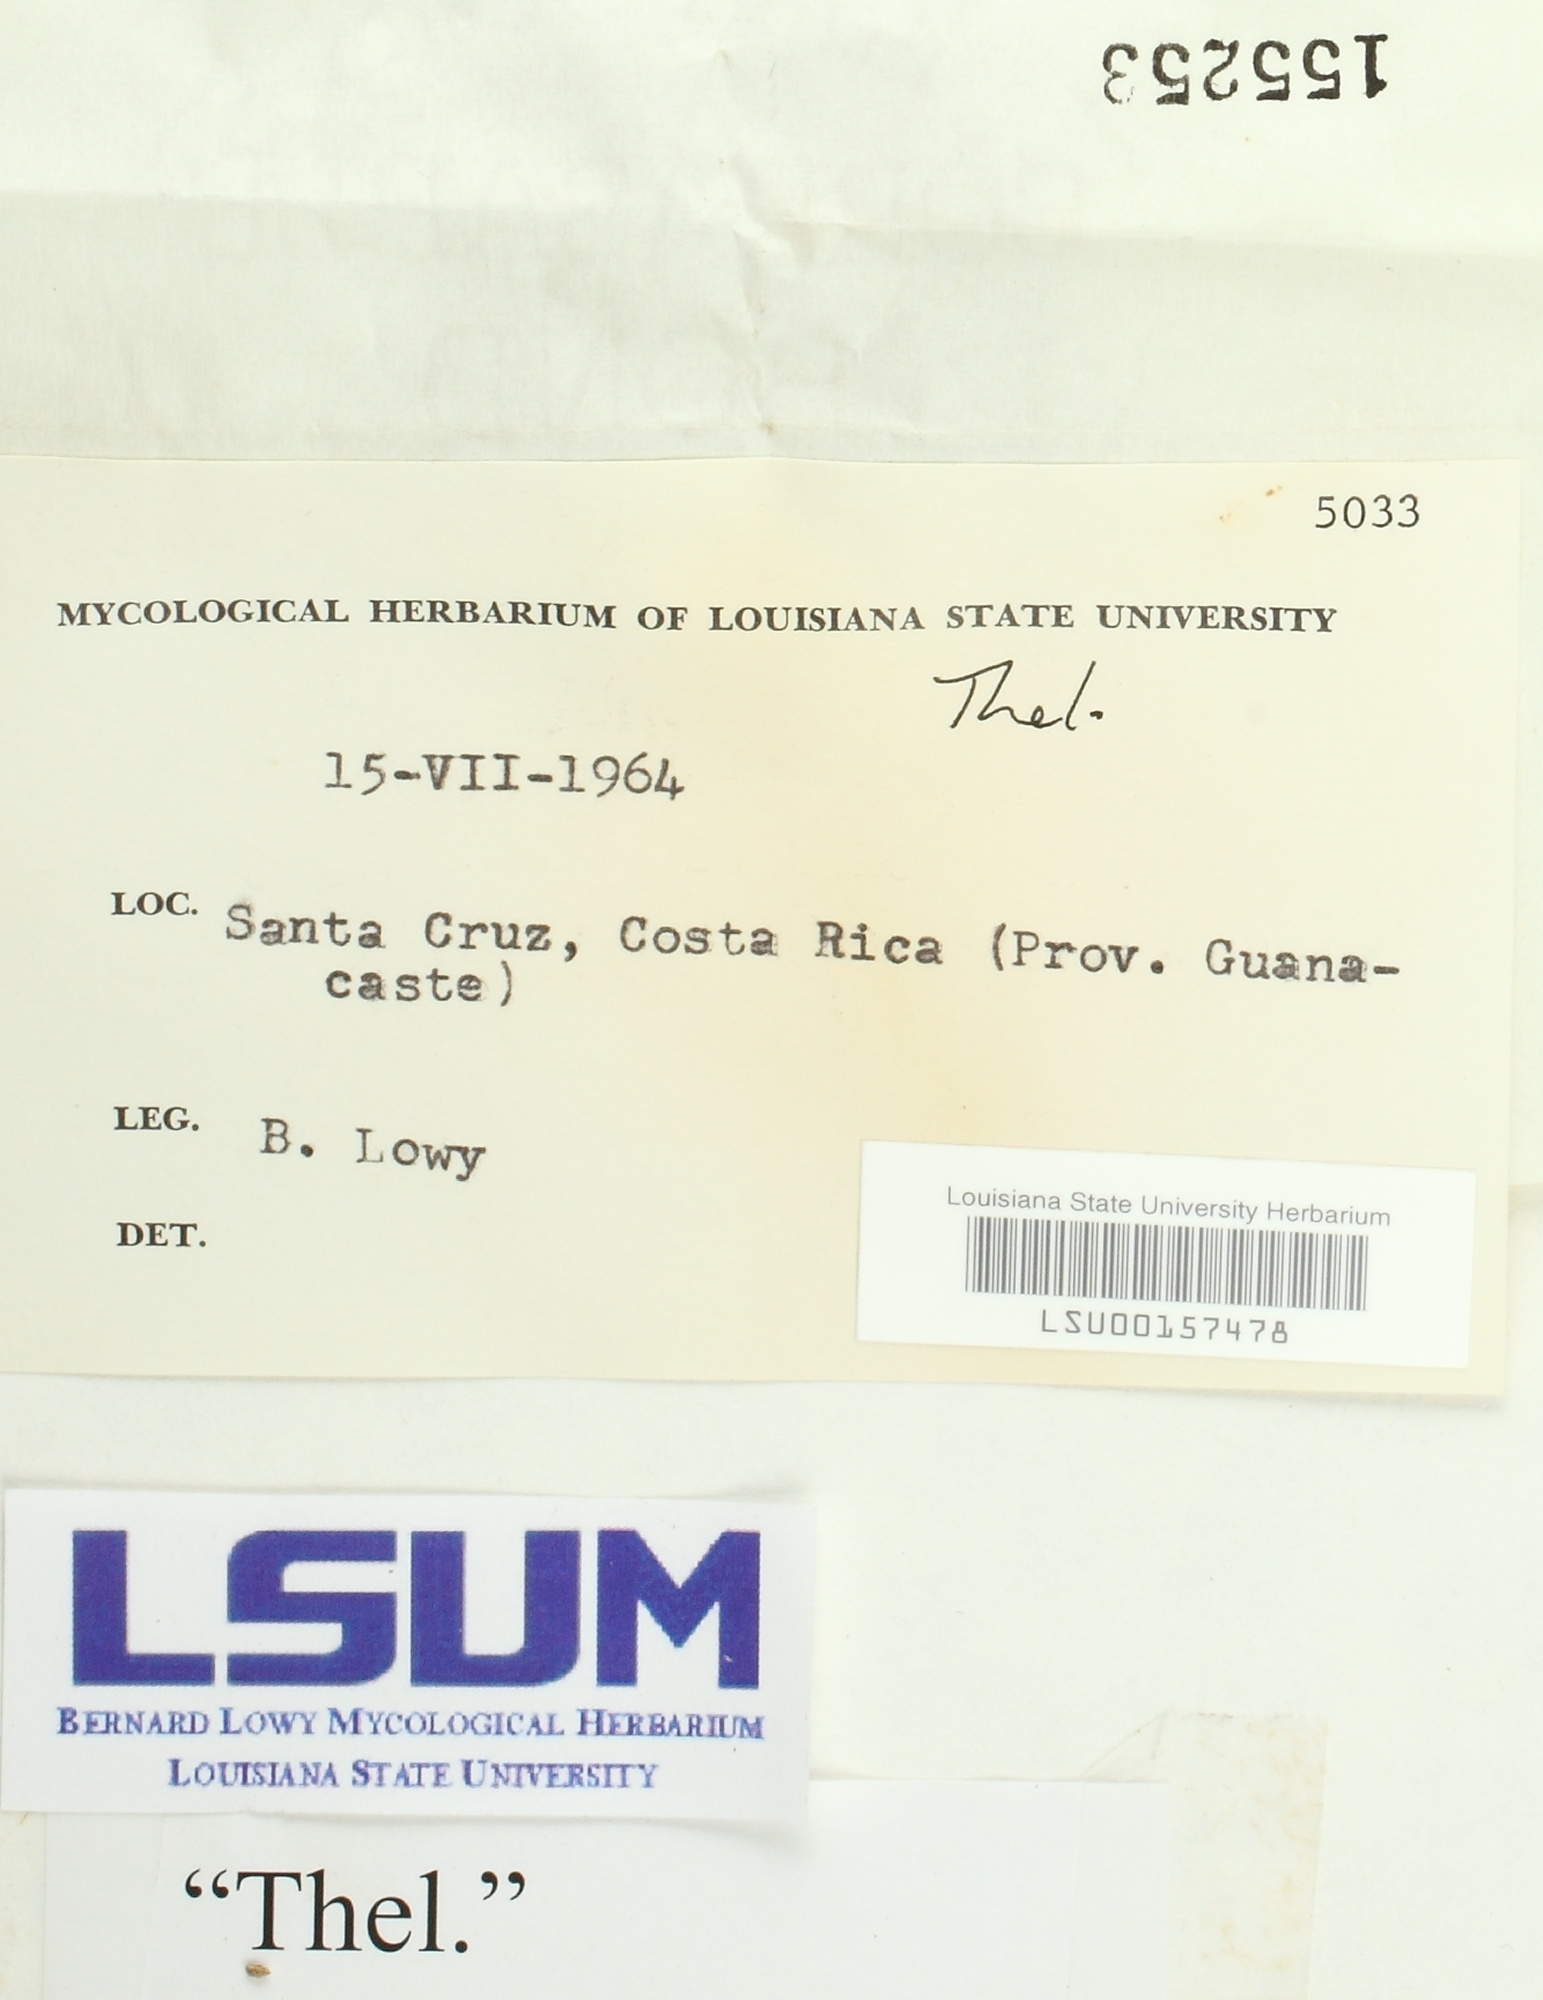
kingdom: Fungi
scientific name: Fungi
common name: Fungi
